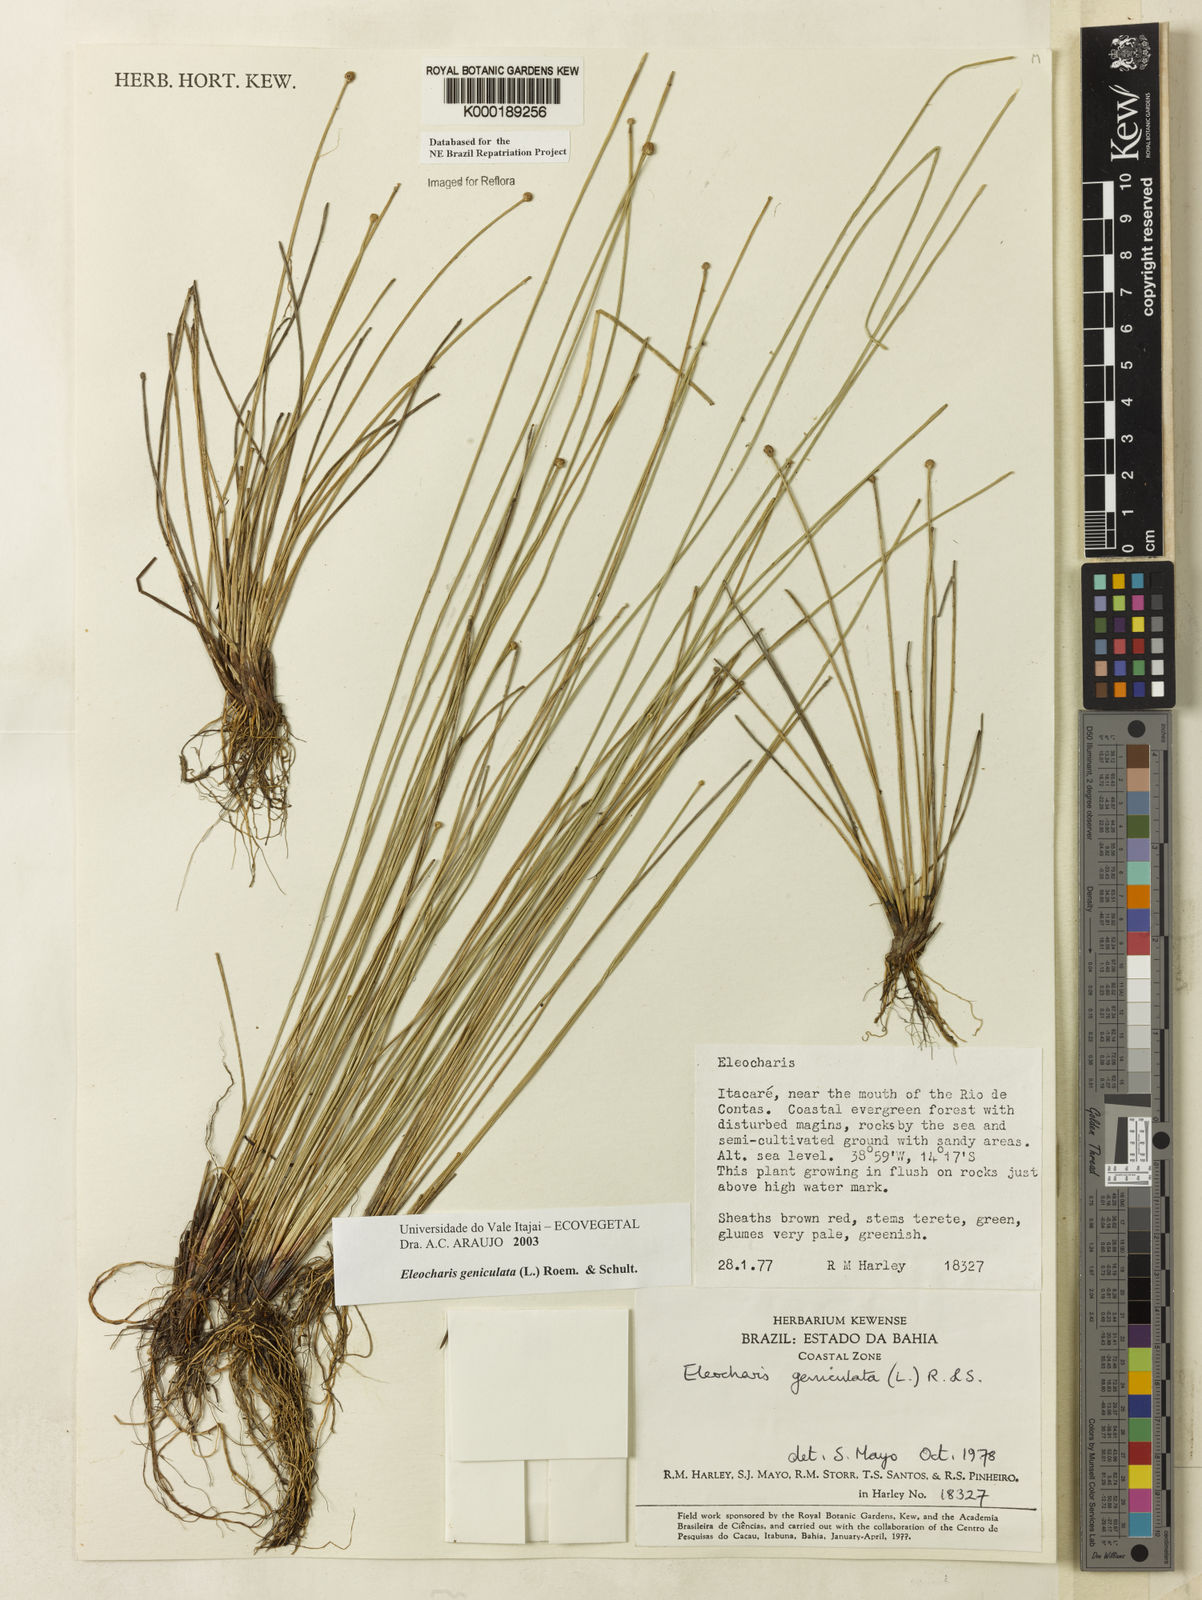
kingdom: Plantae
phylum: Tracheophyta
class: Liliopsida
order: Poales
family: Cyperaceae
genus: Eleocharis
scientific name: Eleocharis geniculata
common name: Canada spikesedge
